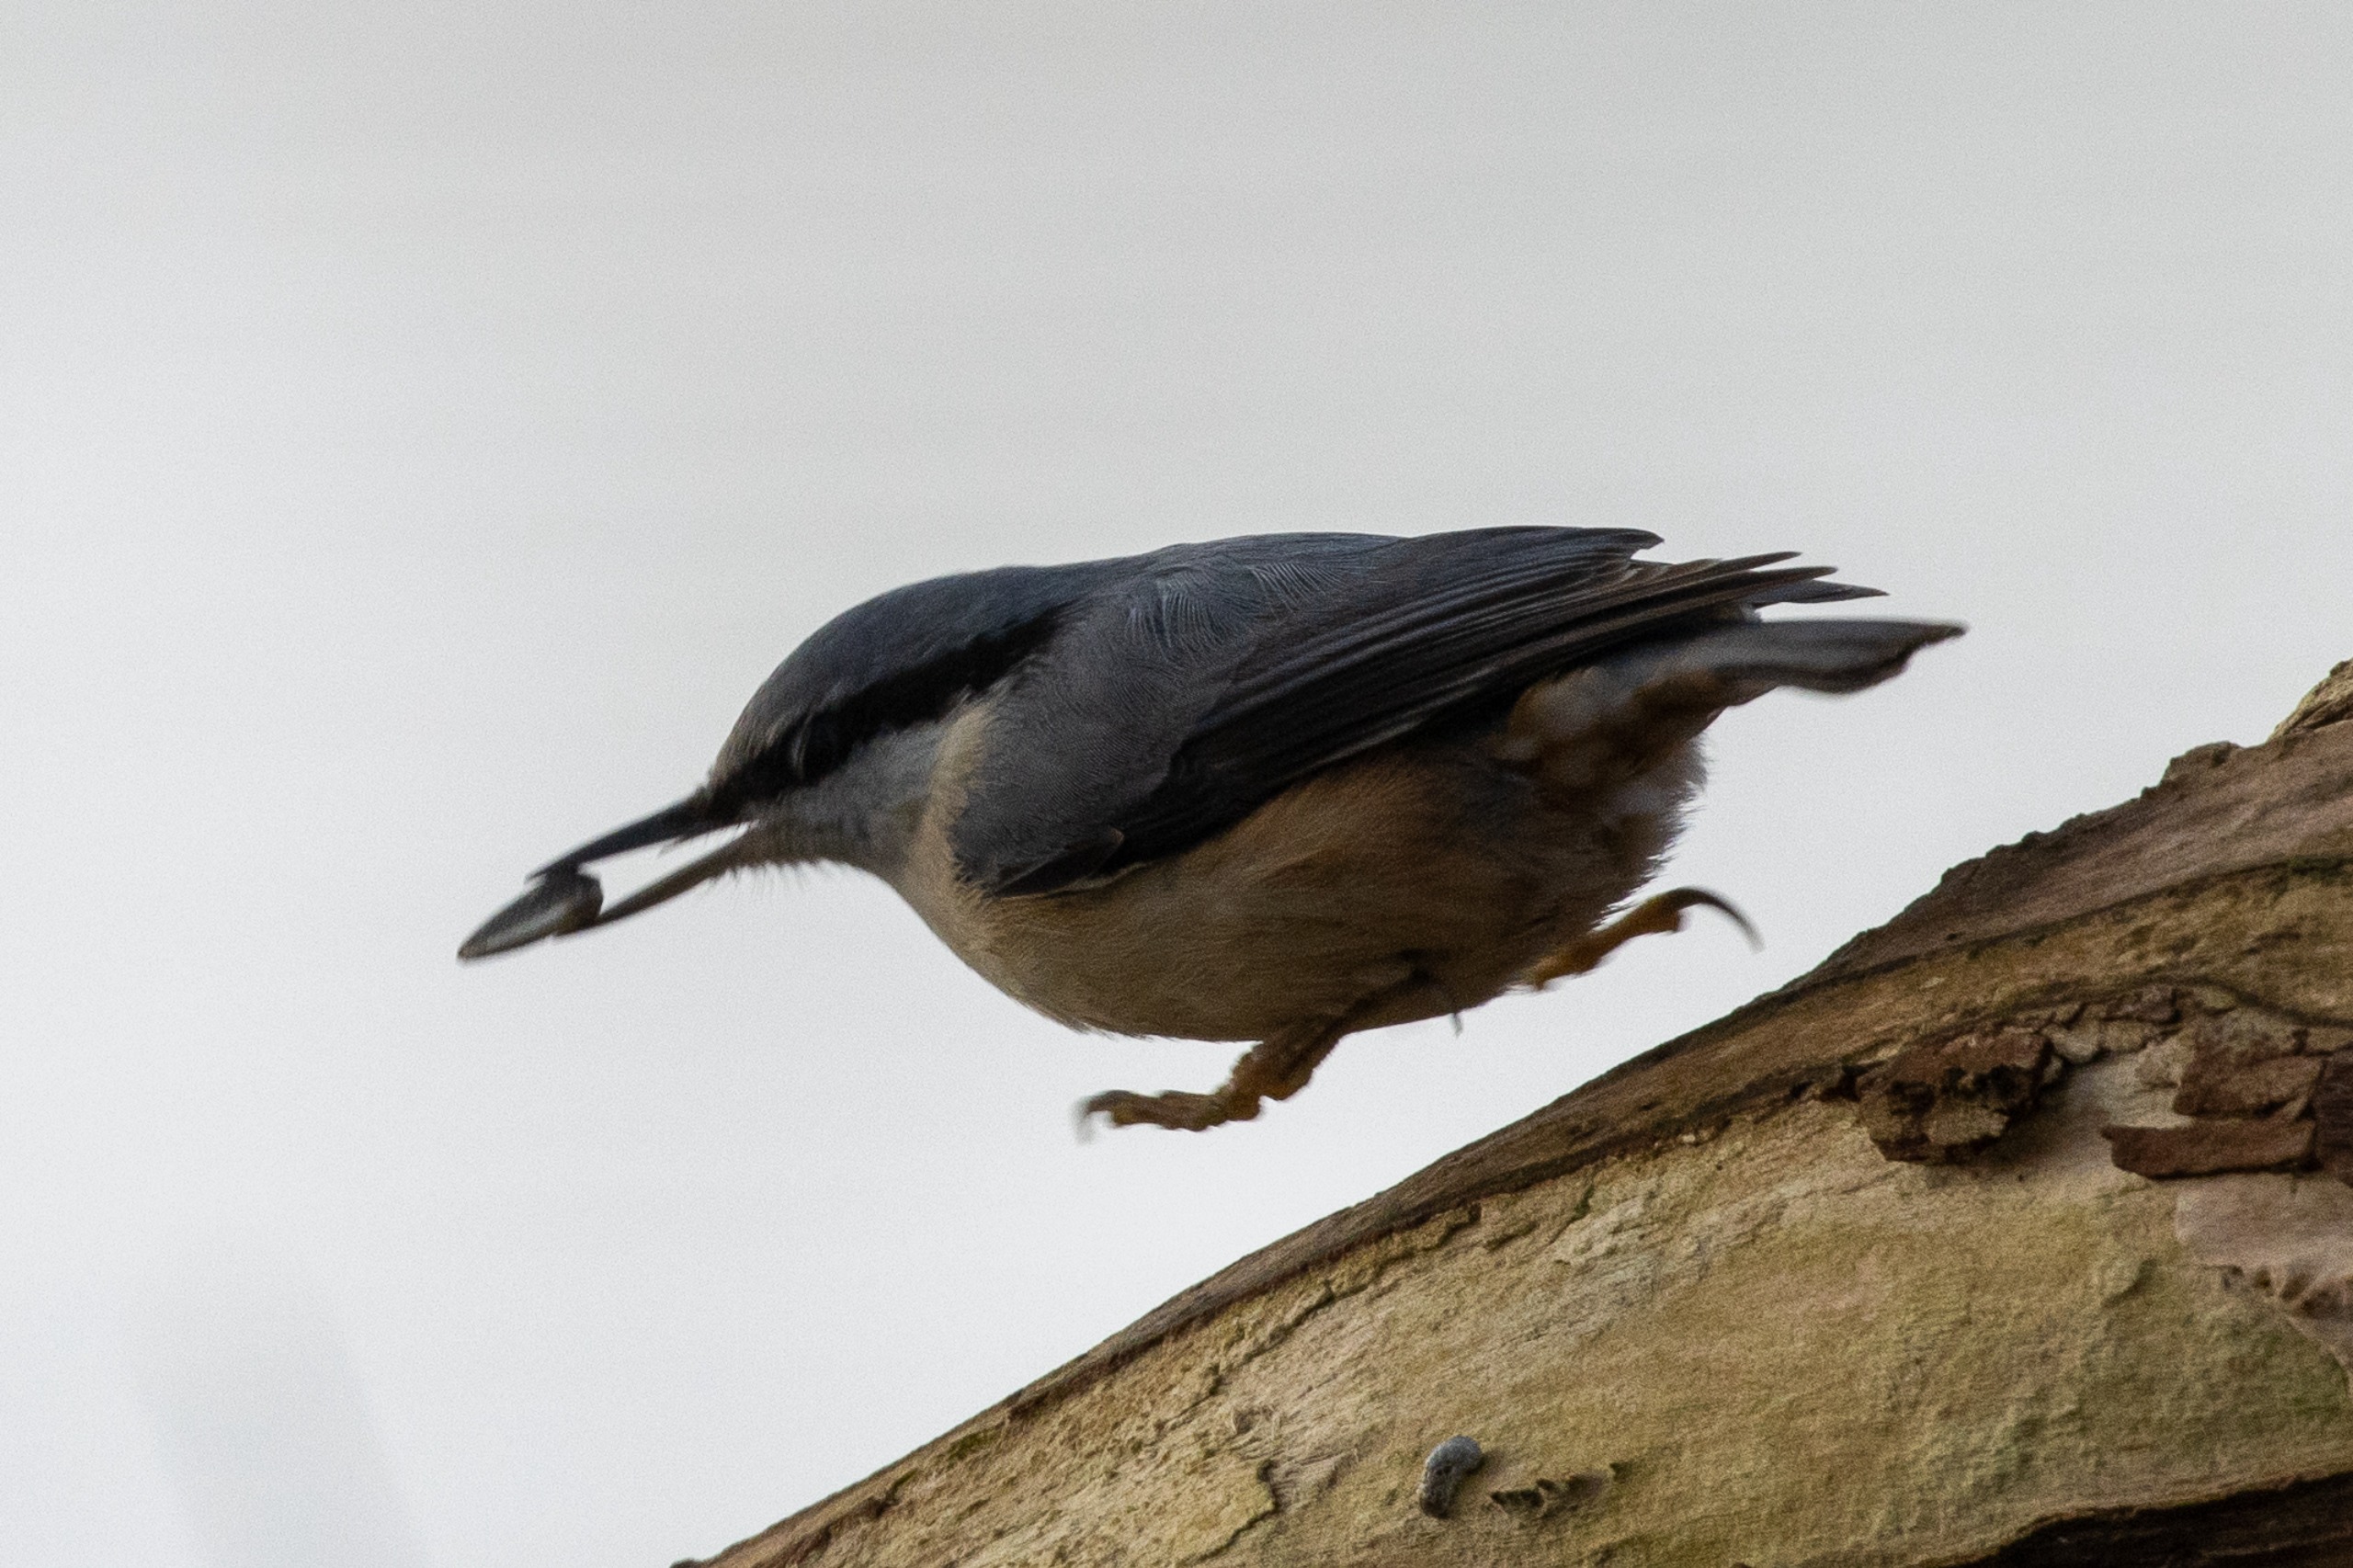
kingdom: Animalia
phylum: Chordata
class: Aves
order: Passeriformes
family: Sittidae
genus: Sitta
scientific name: Sitta europaea
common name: Spætmejse
